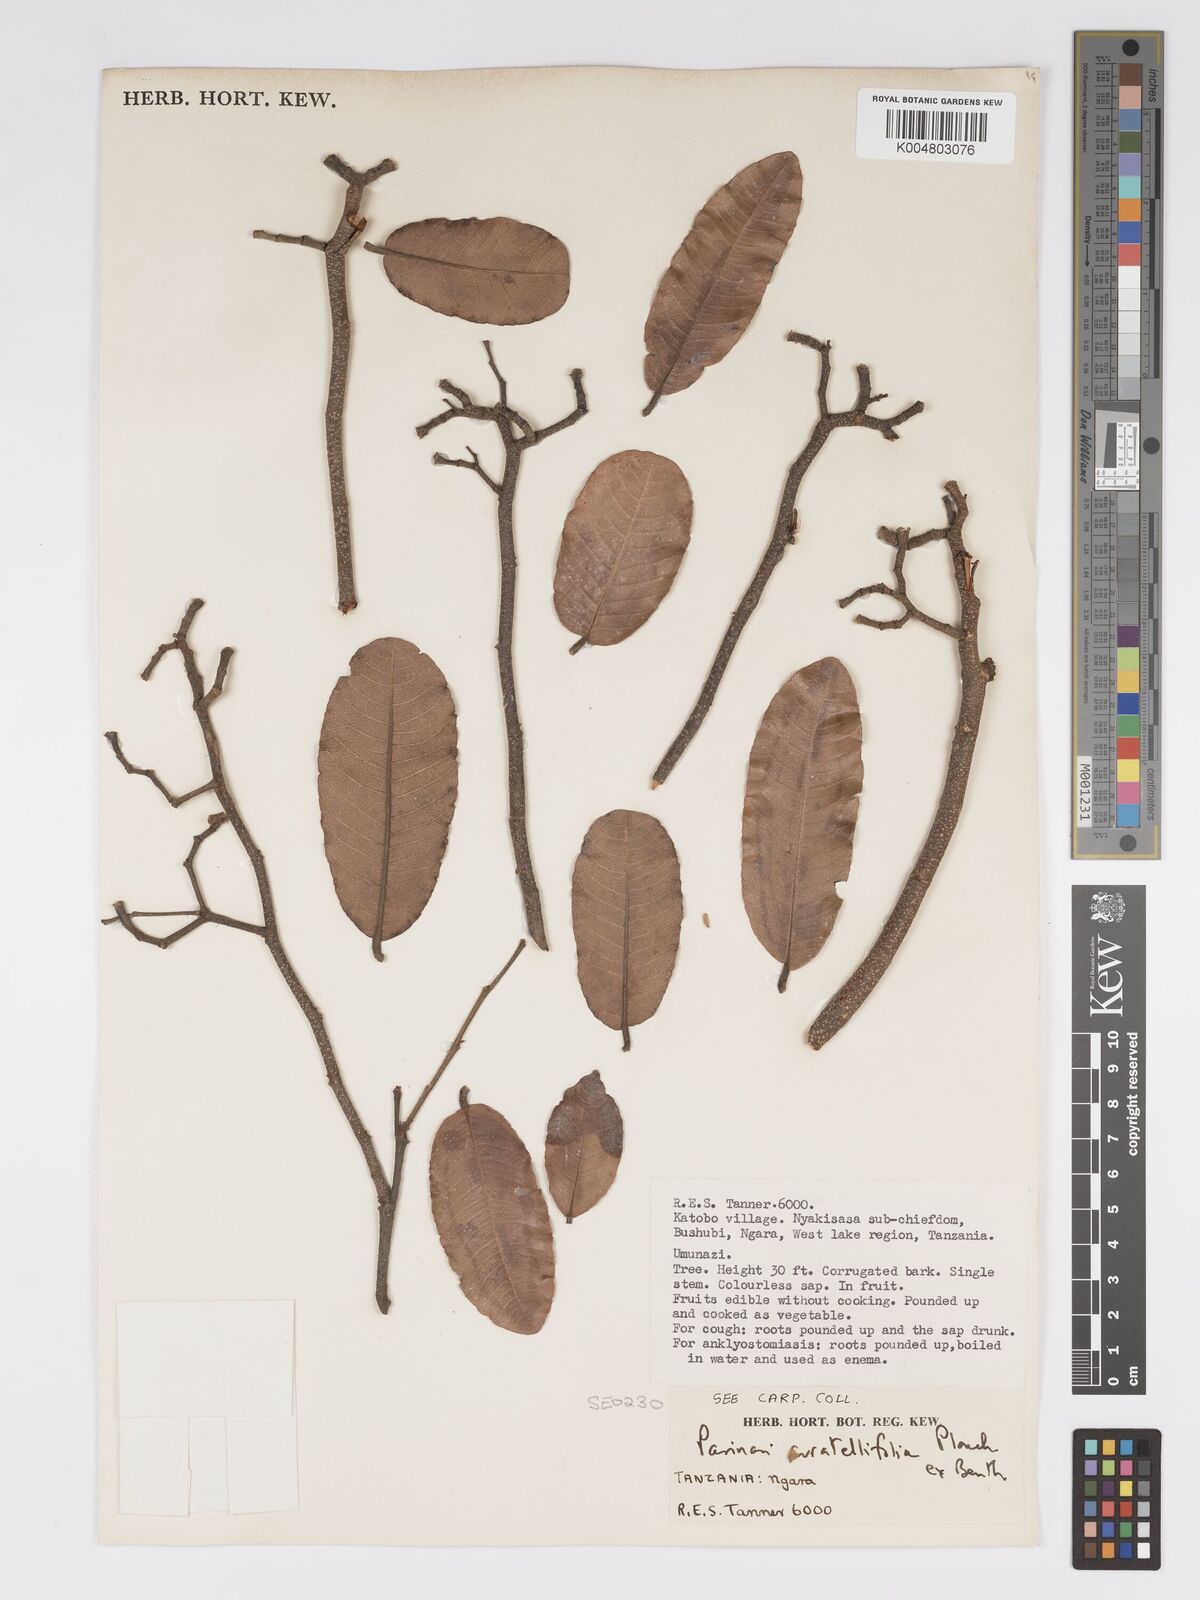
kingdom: Plantae
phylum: Tracheophyta
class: Magnoliopsida
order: Malpighiales
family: Chrysobalanaceae
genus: Parinari
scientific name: Parinari curatellifolia
